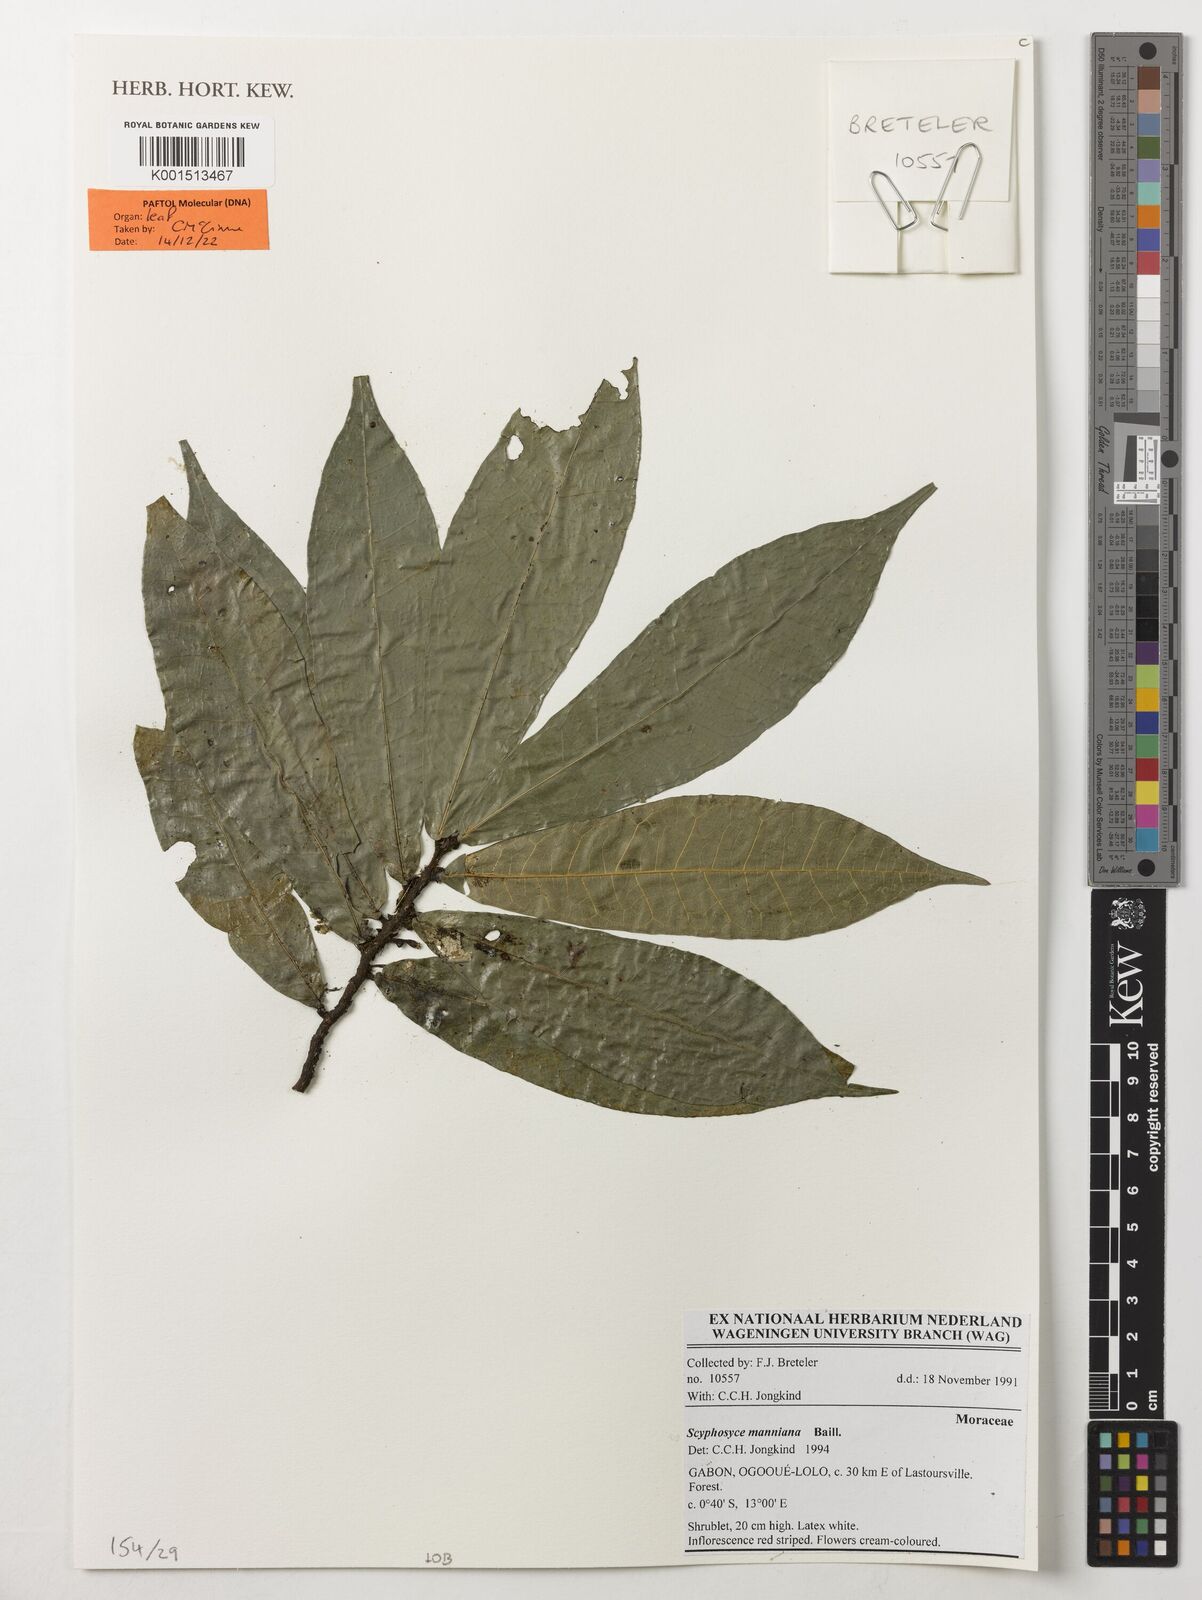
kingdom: Plantae
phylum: Tracheophyta
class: Magnoliopsida
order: Rosales
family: Moraceae
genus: Scyphosyce
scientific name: Scyphosyce manniana
